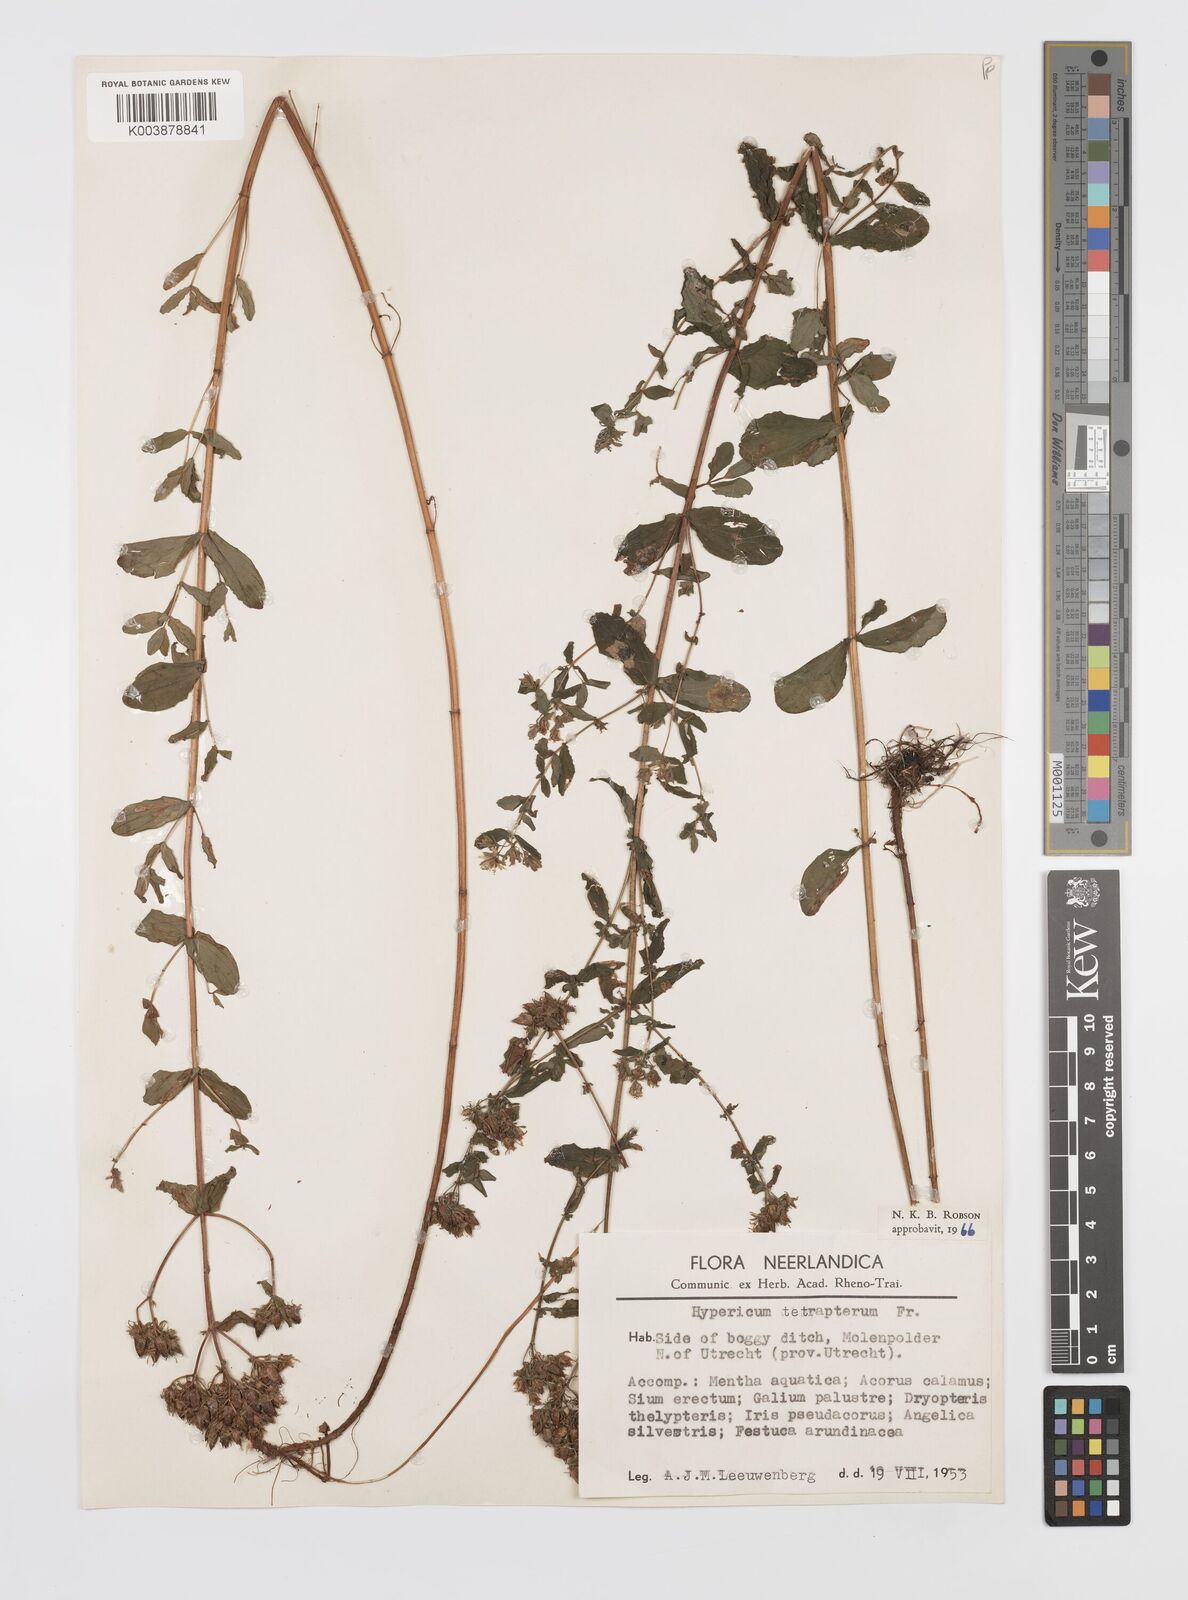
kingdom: Plantae
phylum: Tracheophyta
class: Magnoliopsida
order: Malpighiales
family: Hypericaceae
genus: Hypericum
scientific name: Hypericum tetrapterum
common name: Square-stalked st. john's-wort
